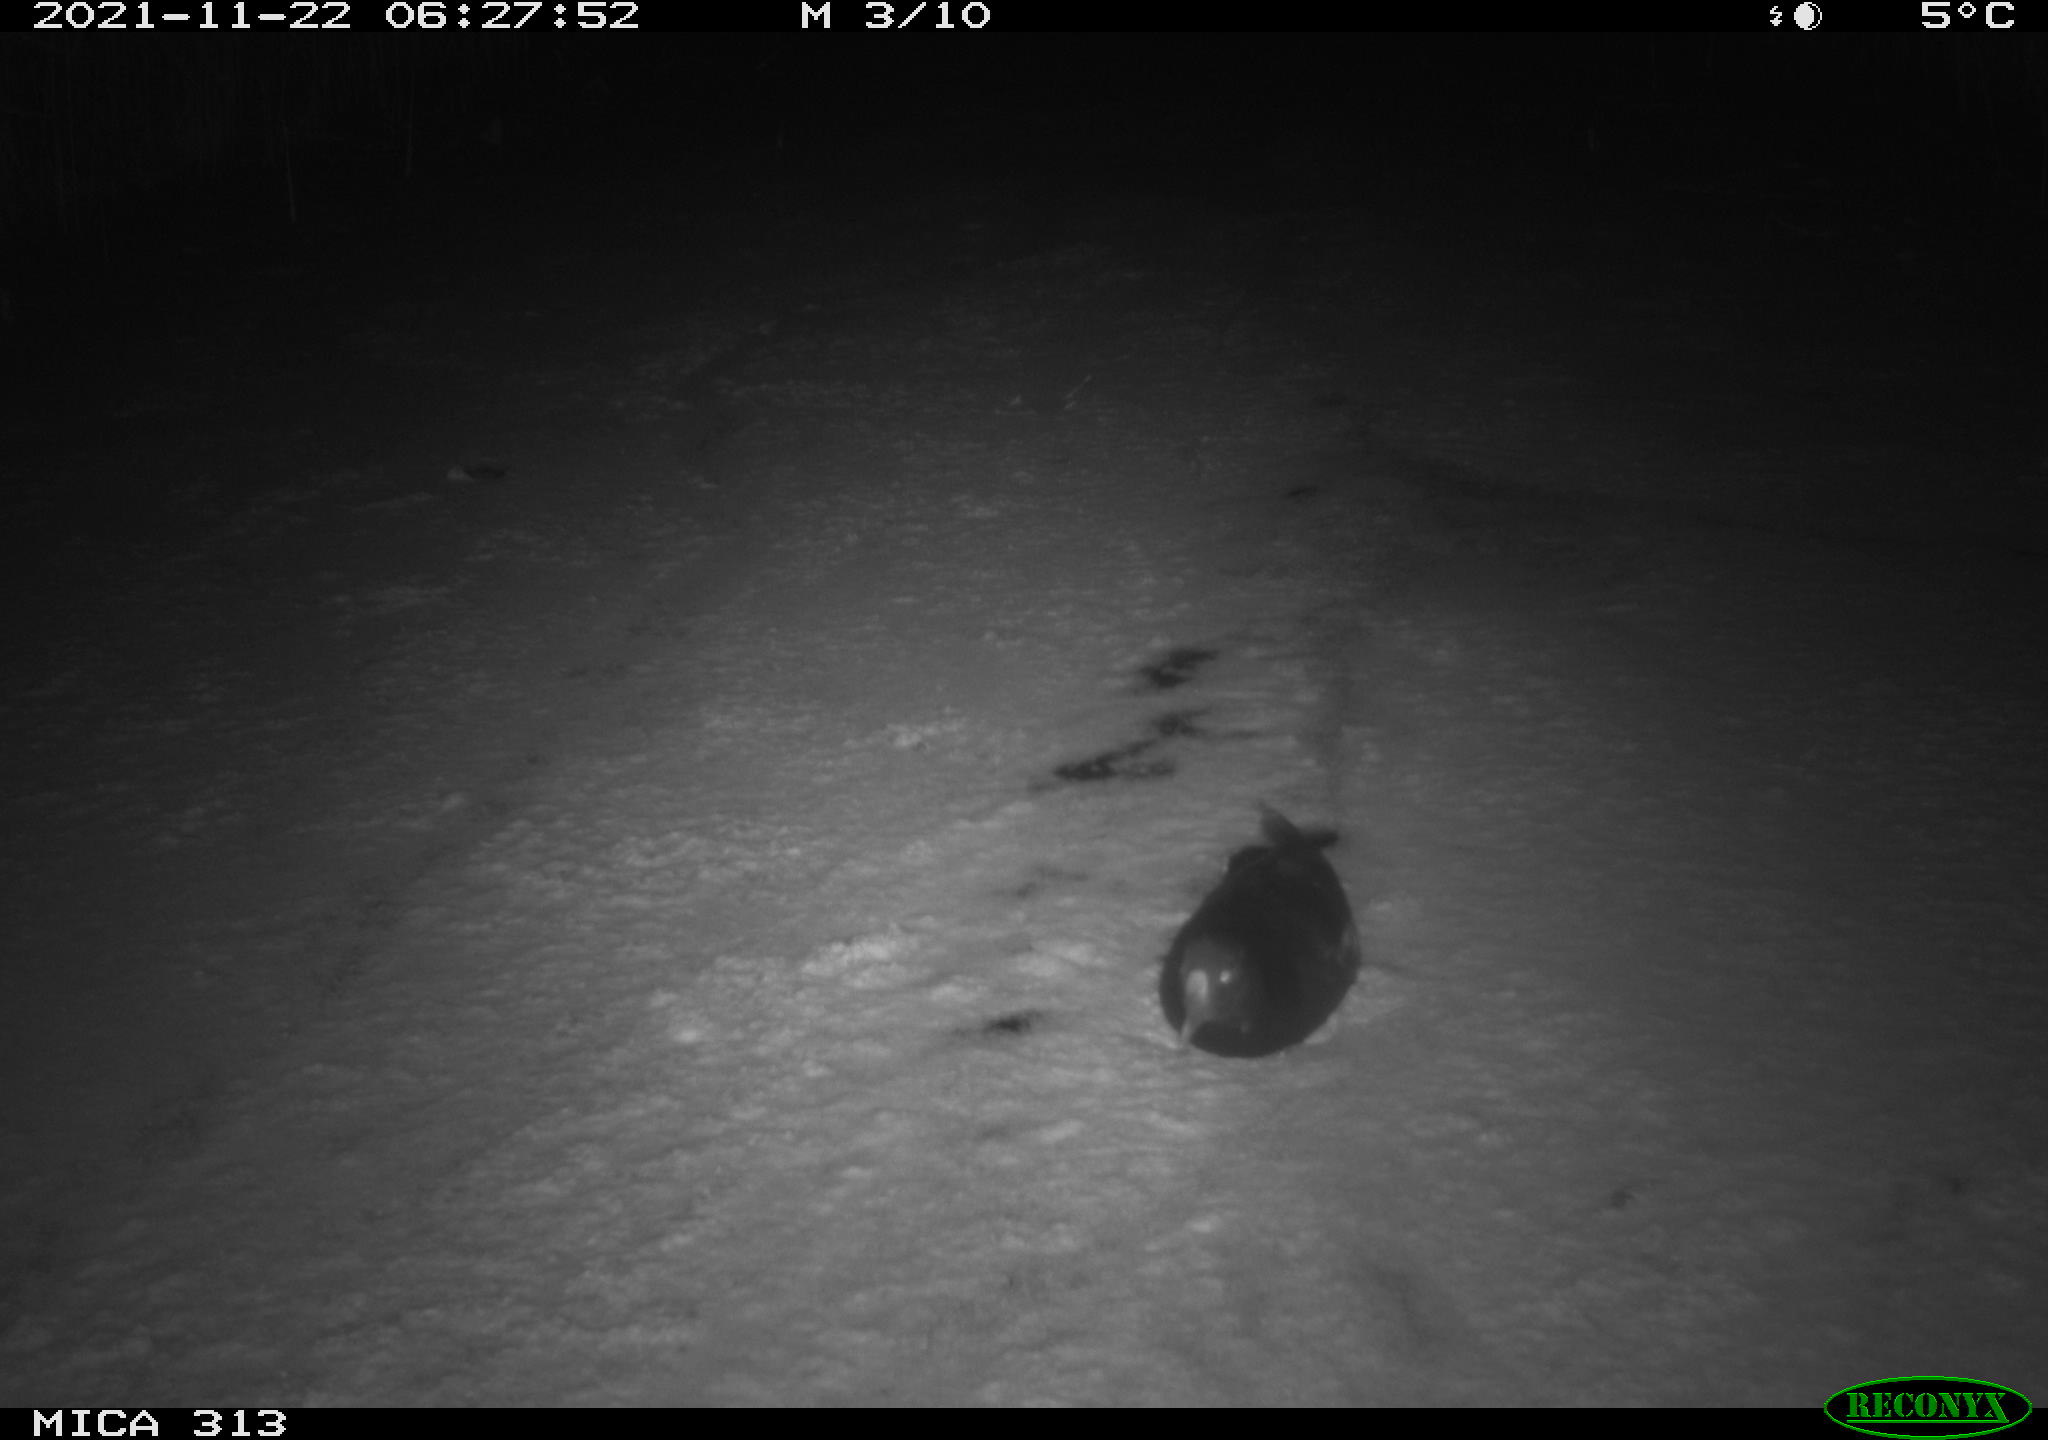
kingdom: Animalia
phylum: Chordata
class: Aves
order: Gruiformes
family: Rallidae
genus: Fulica
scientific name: Fulica atra
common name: Eurasian coot
